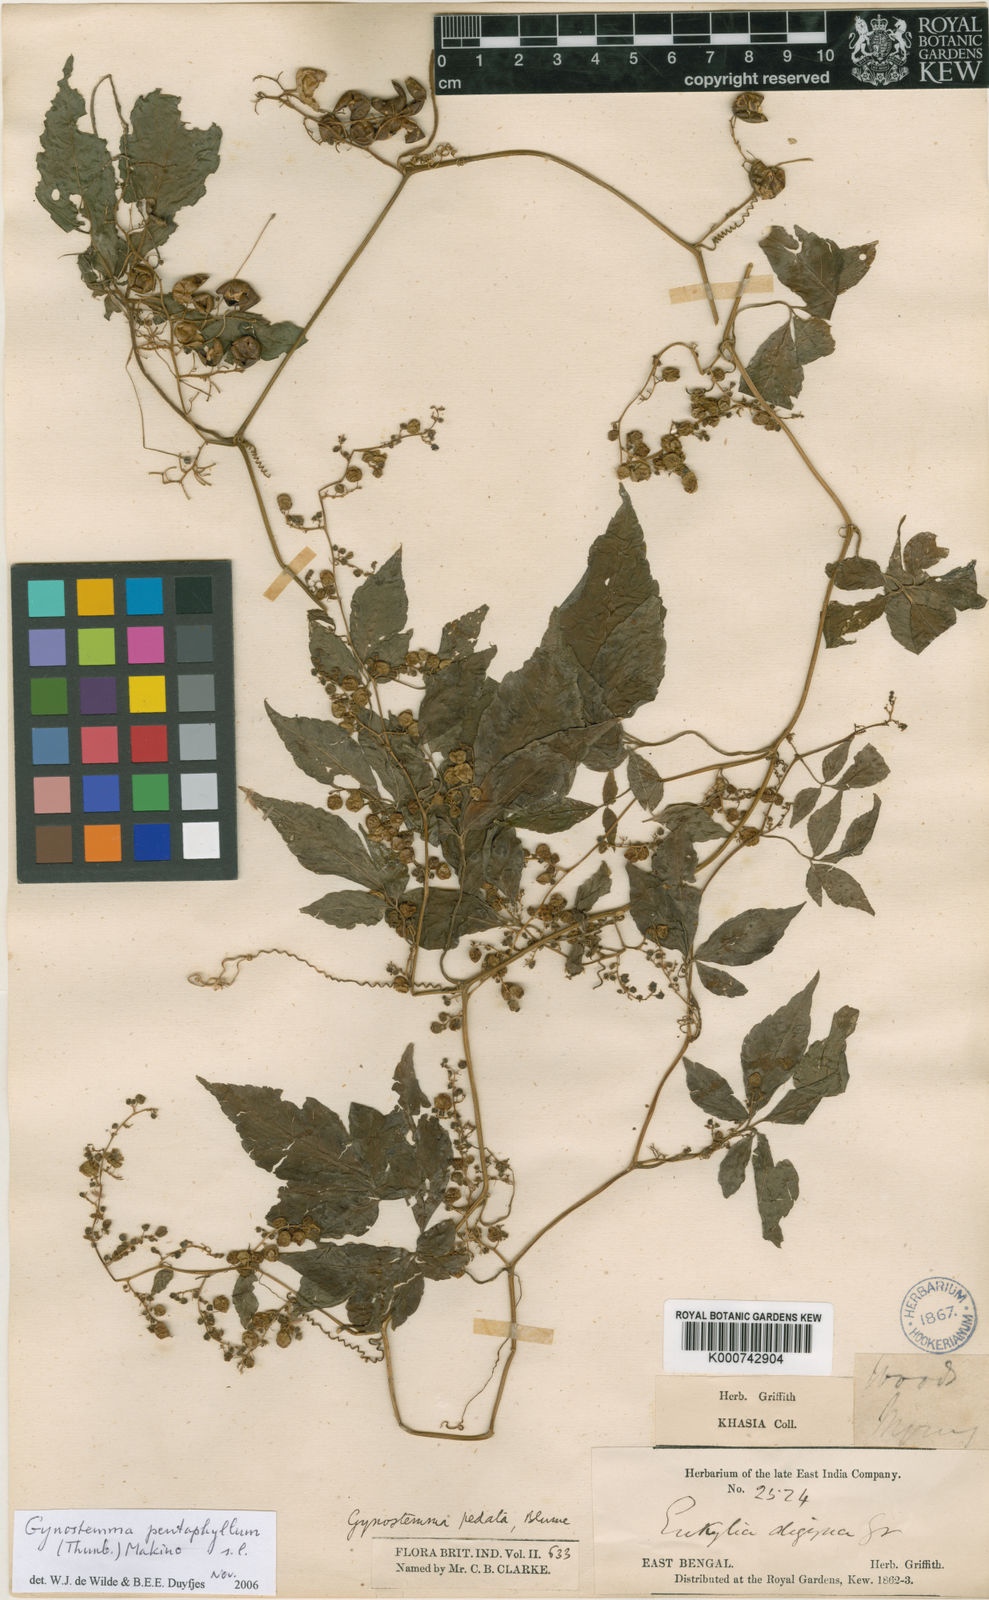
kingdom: Plantae
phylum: Tracheophyta
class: Magnoliopsida
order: Cucurbitales
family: Cucurbitaceae
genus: Gynostemma
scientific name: Gynostemma pentaphyllum
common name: Gynostemma
